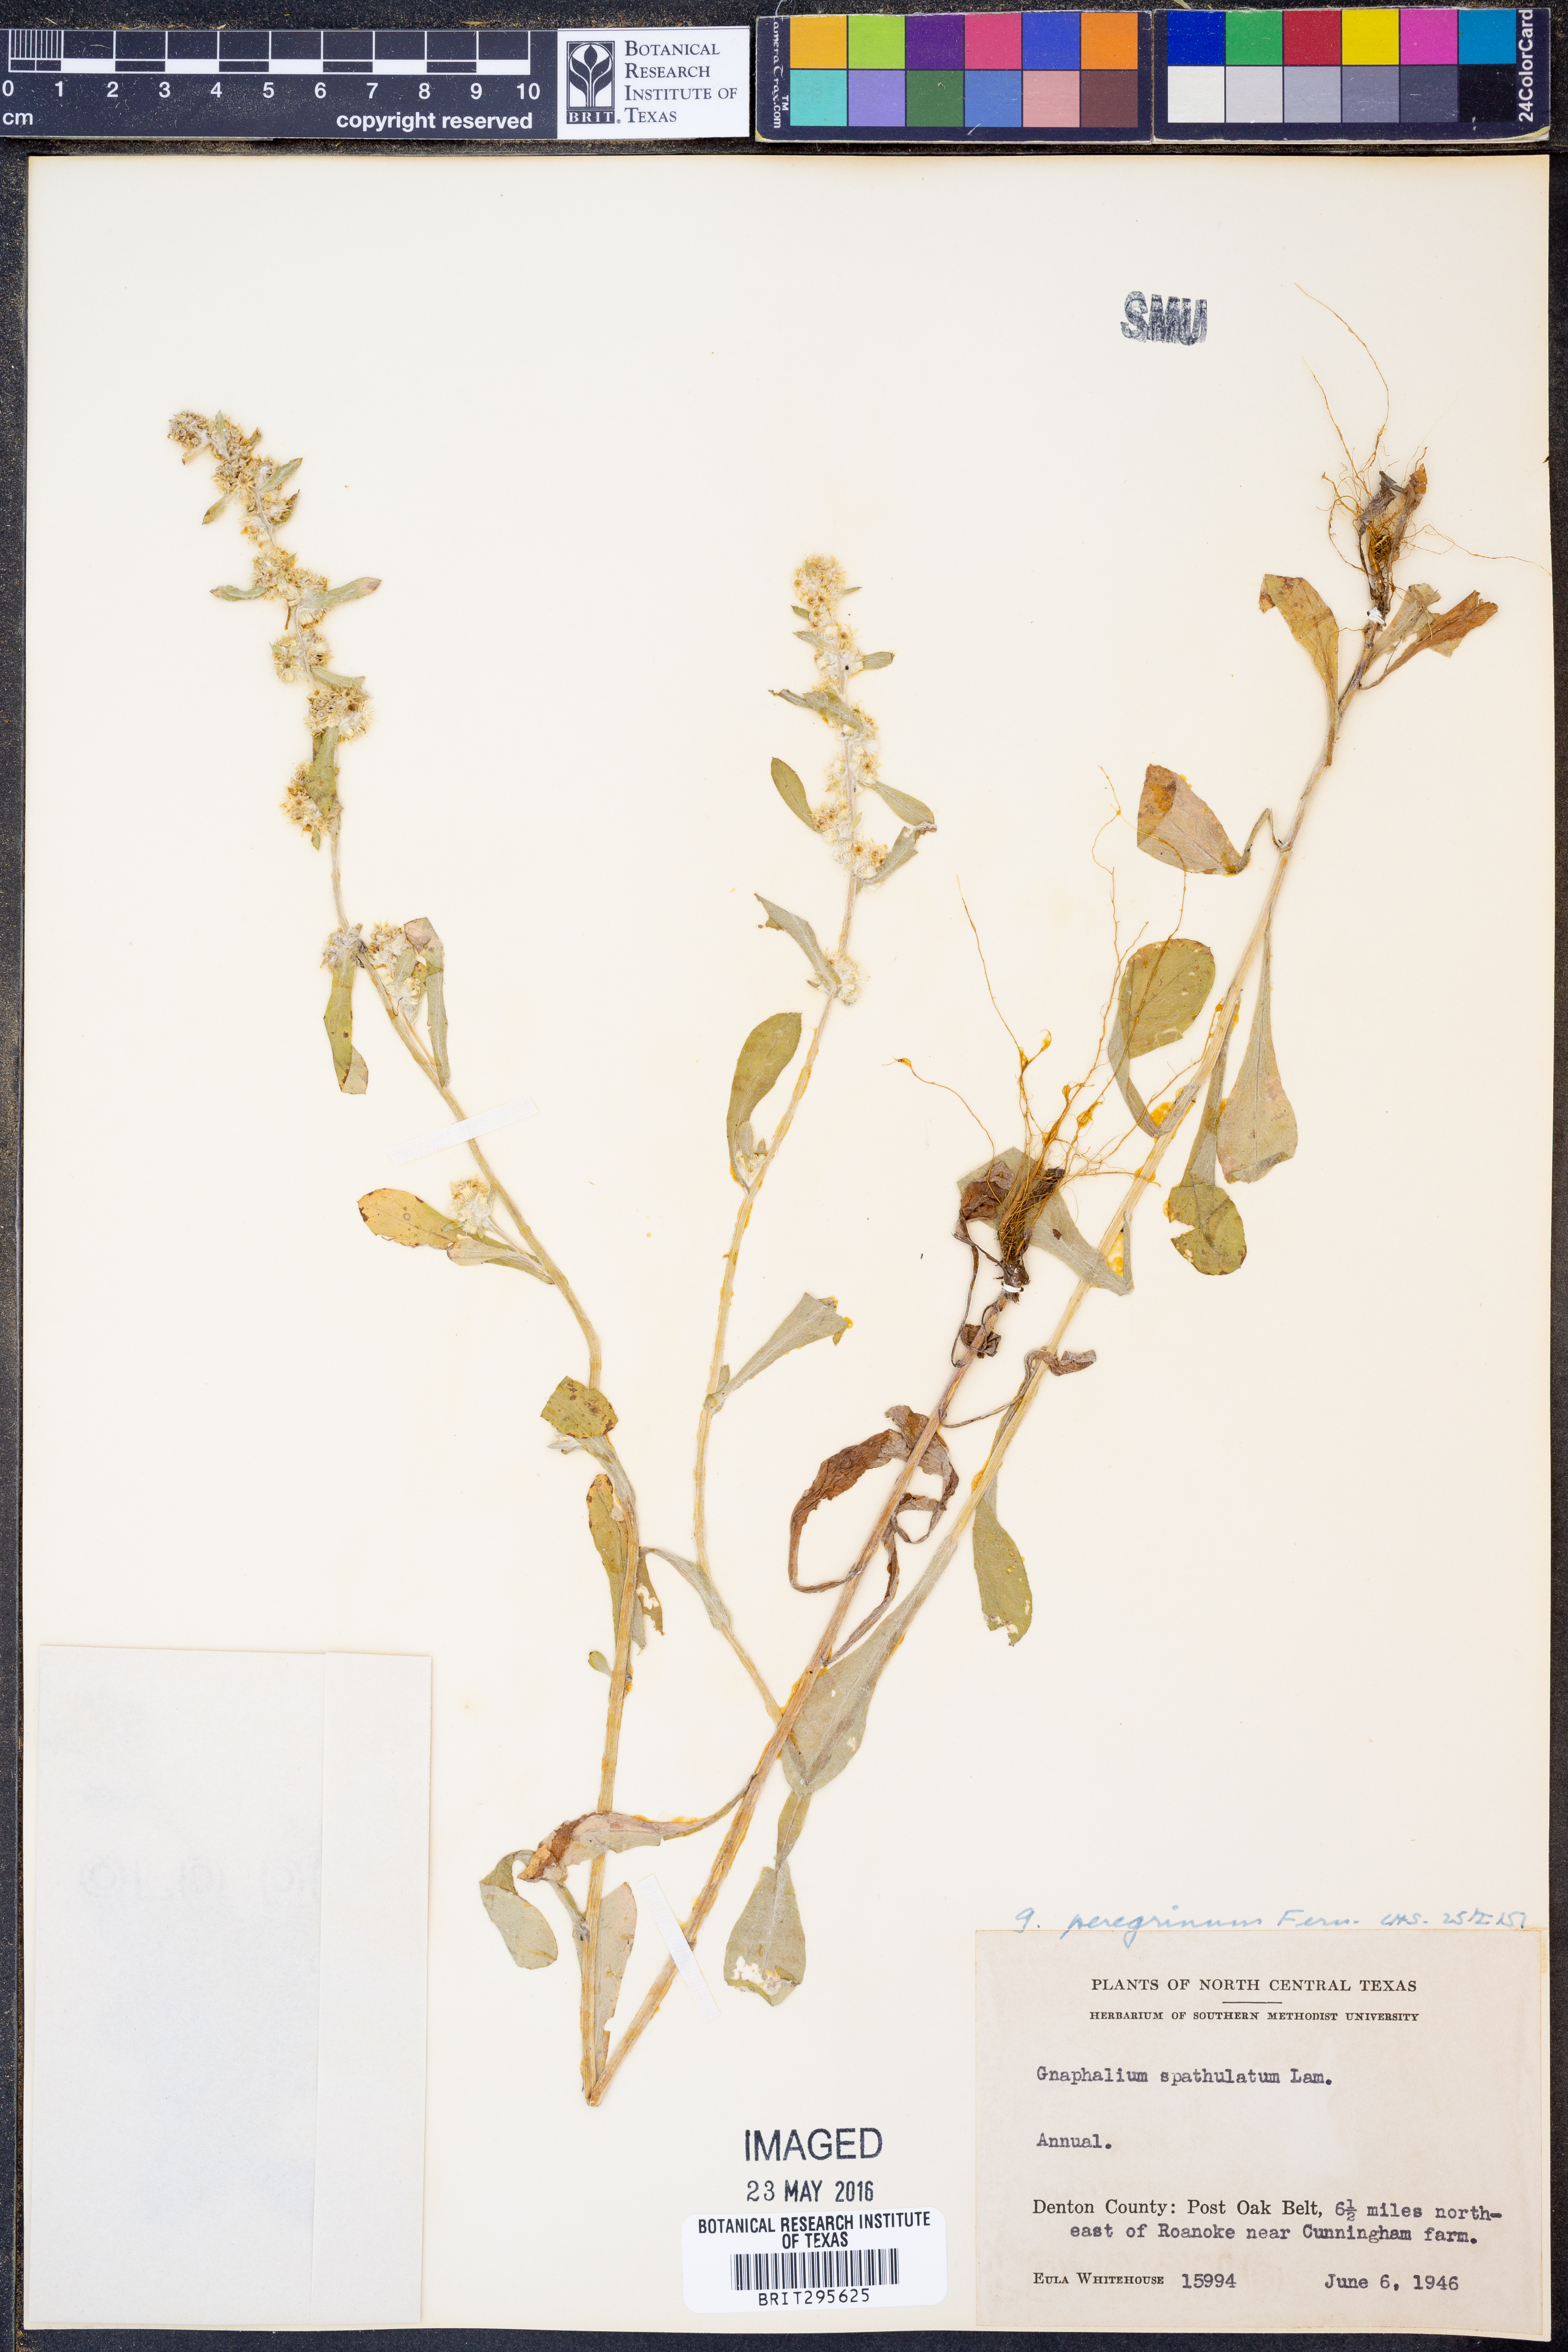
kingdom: Plantae
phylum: Tracheophyta
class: Magnoliopsida
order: Asterales
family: Asteraceae
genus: Gamochaeta
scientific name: Gamochaeta pensylvanica
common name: Pennsylvania everlasting
